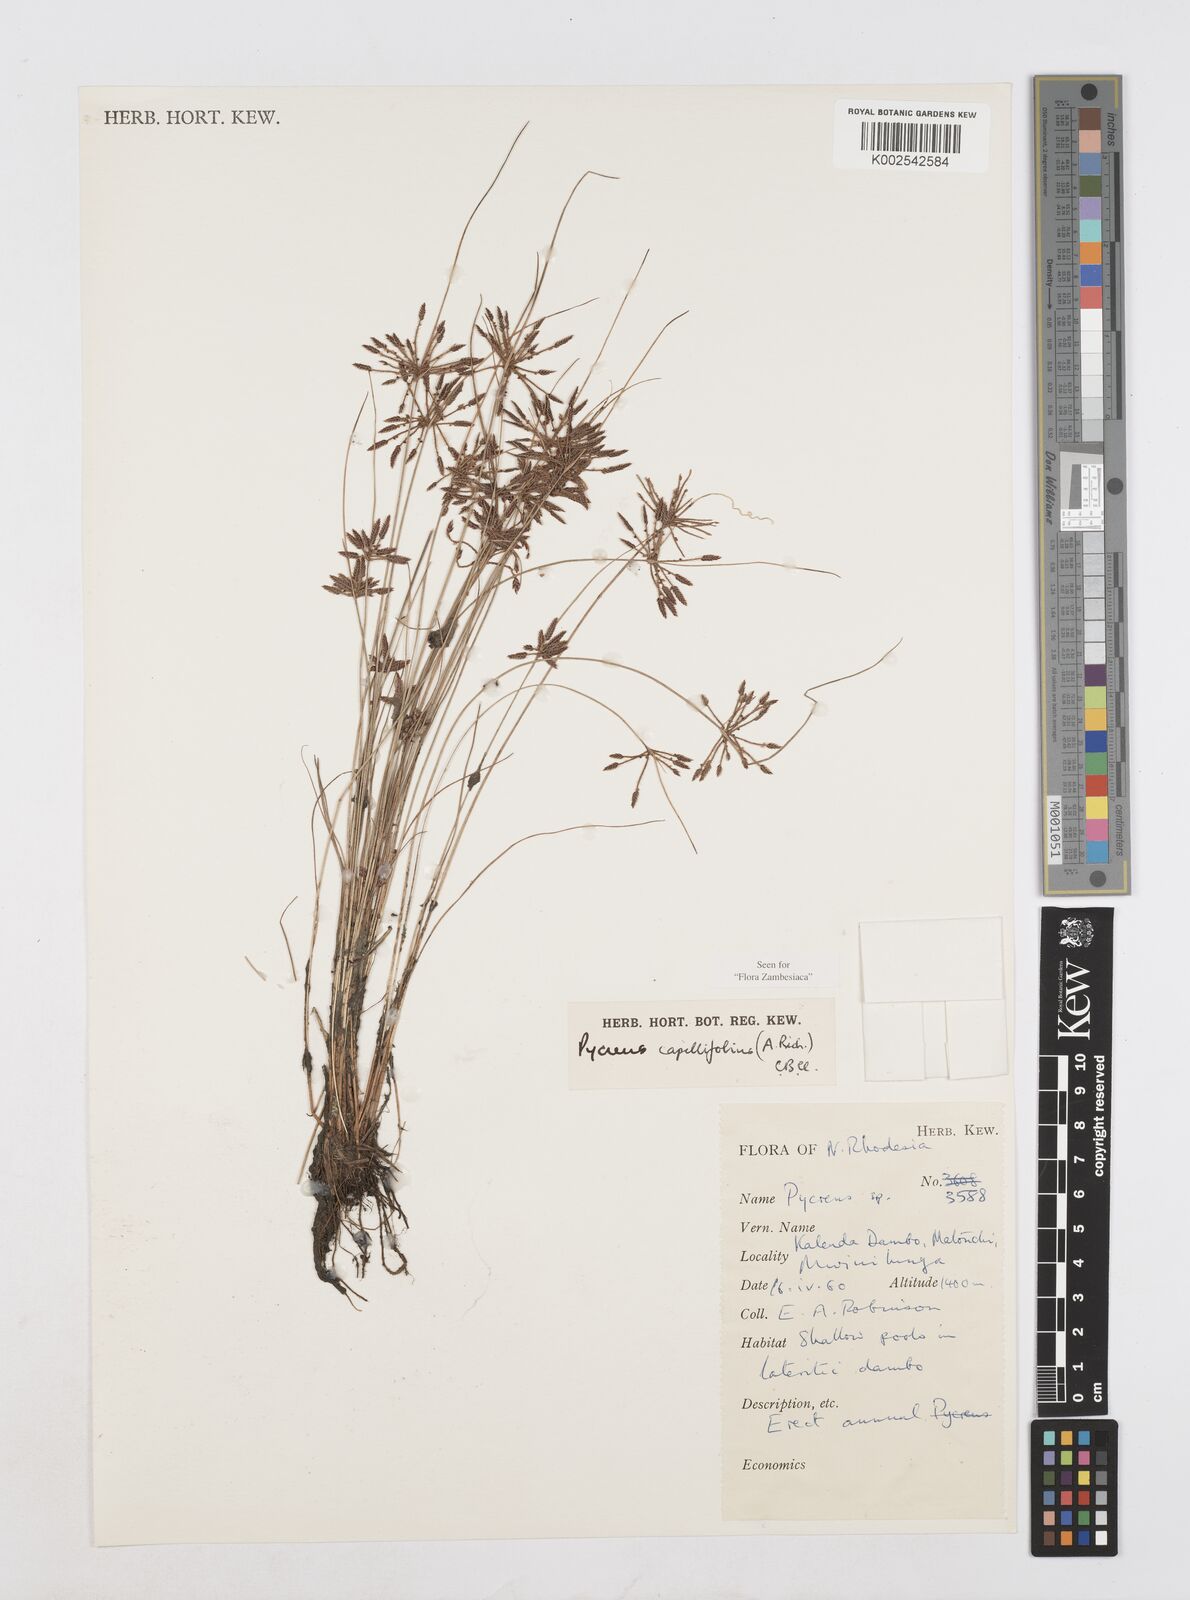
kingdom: Plantae
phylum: Tracheophyta
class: Liliopsida
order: Poales
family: Cyperaceae
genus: Cyperus
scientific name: Cyperus capillifolius
